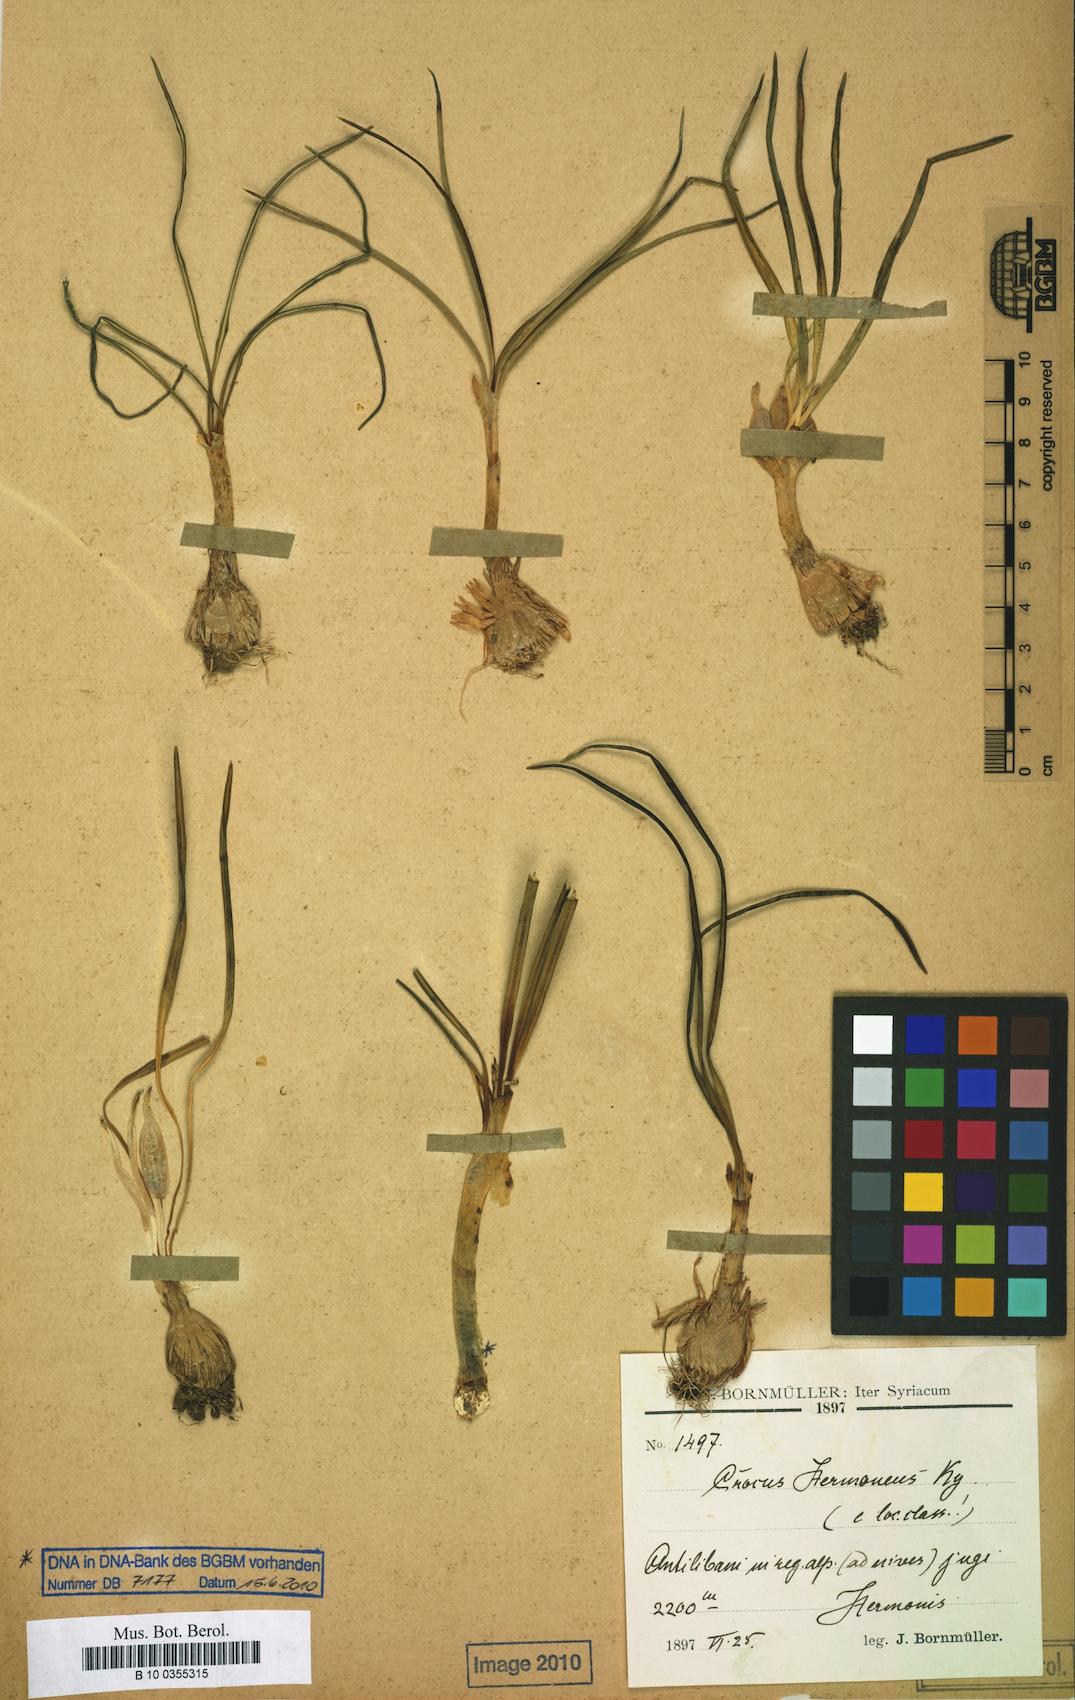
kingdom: Plantae
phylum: Tracheophyta
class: Liliopsida
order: Asparagales
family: Iridaceae
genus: Crocus
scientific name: Crocus hermoneus
